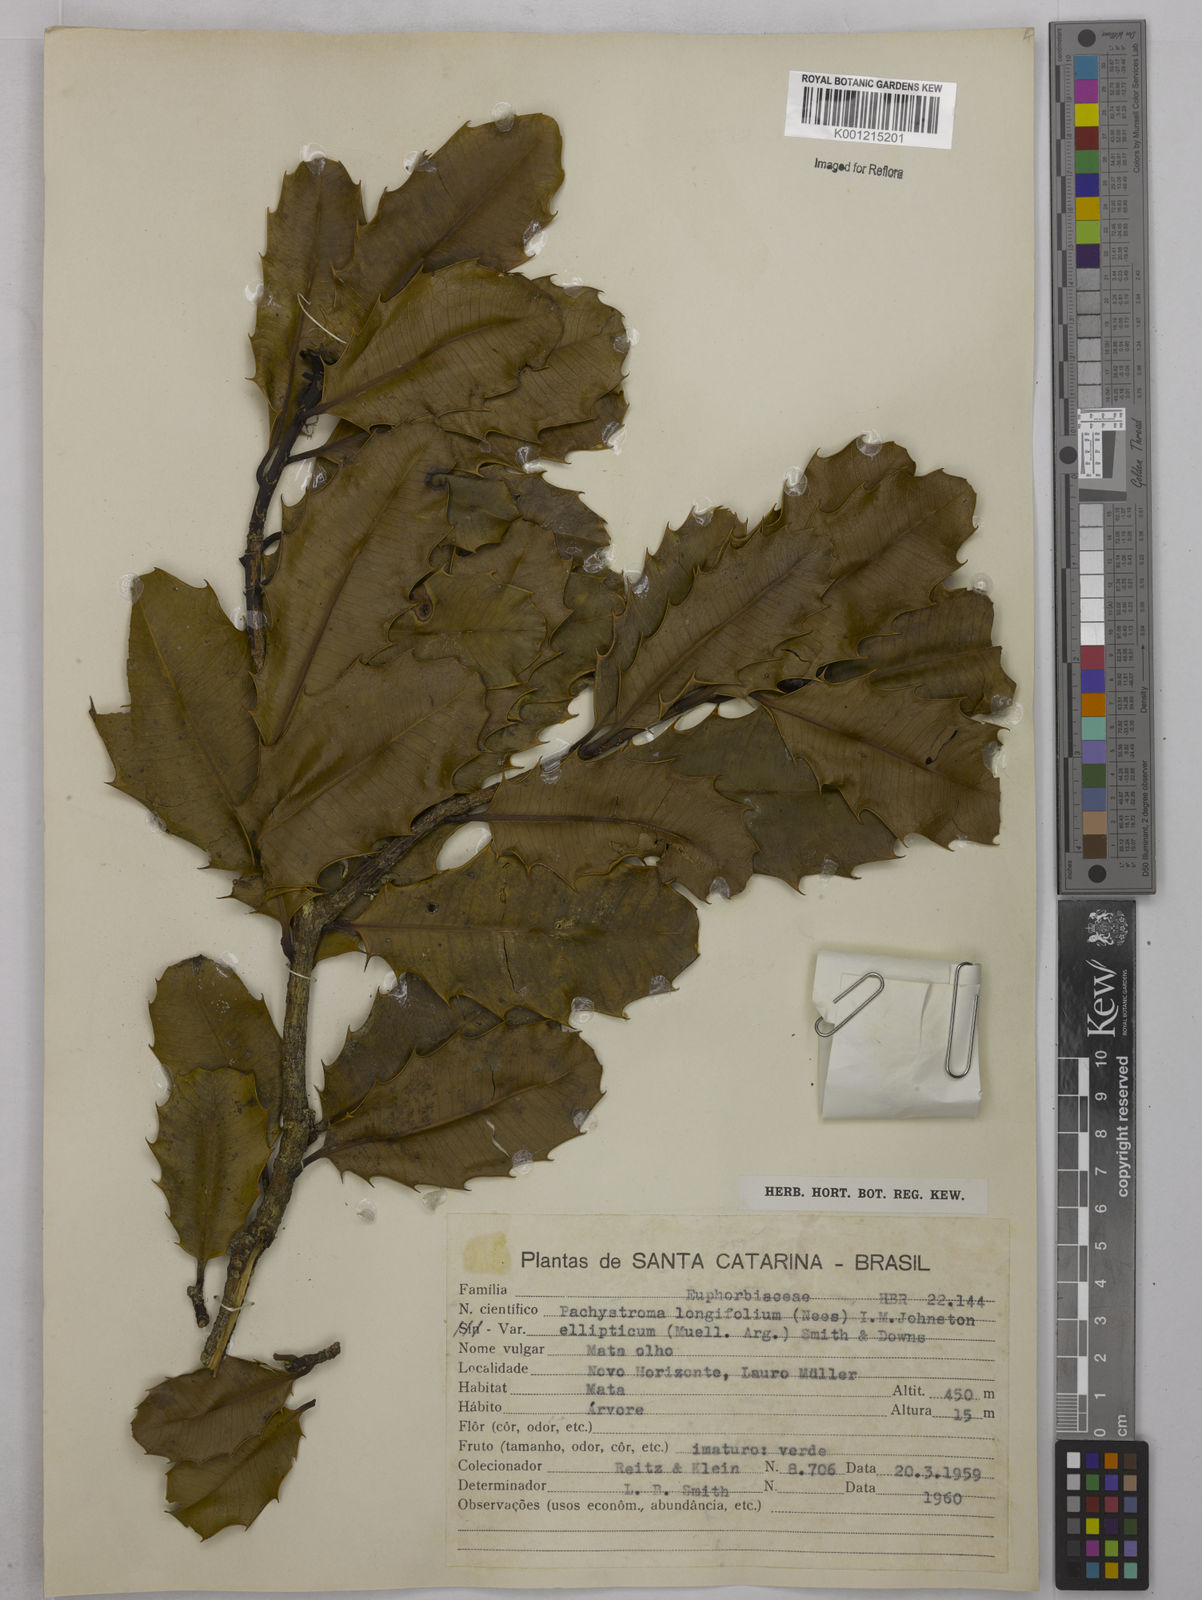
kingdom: Plantae
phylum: Tracheophyta
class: Magnoliopsida
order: Malpighiales
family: Euphorbiaceae
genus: Pachystroma
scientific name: Pachystroma longifolium
